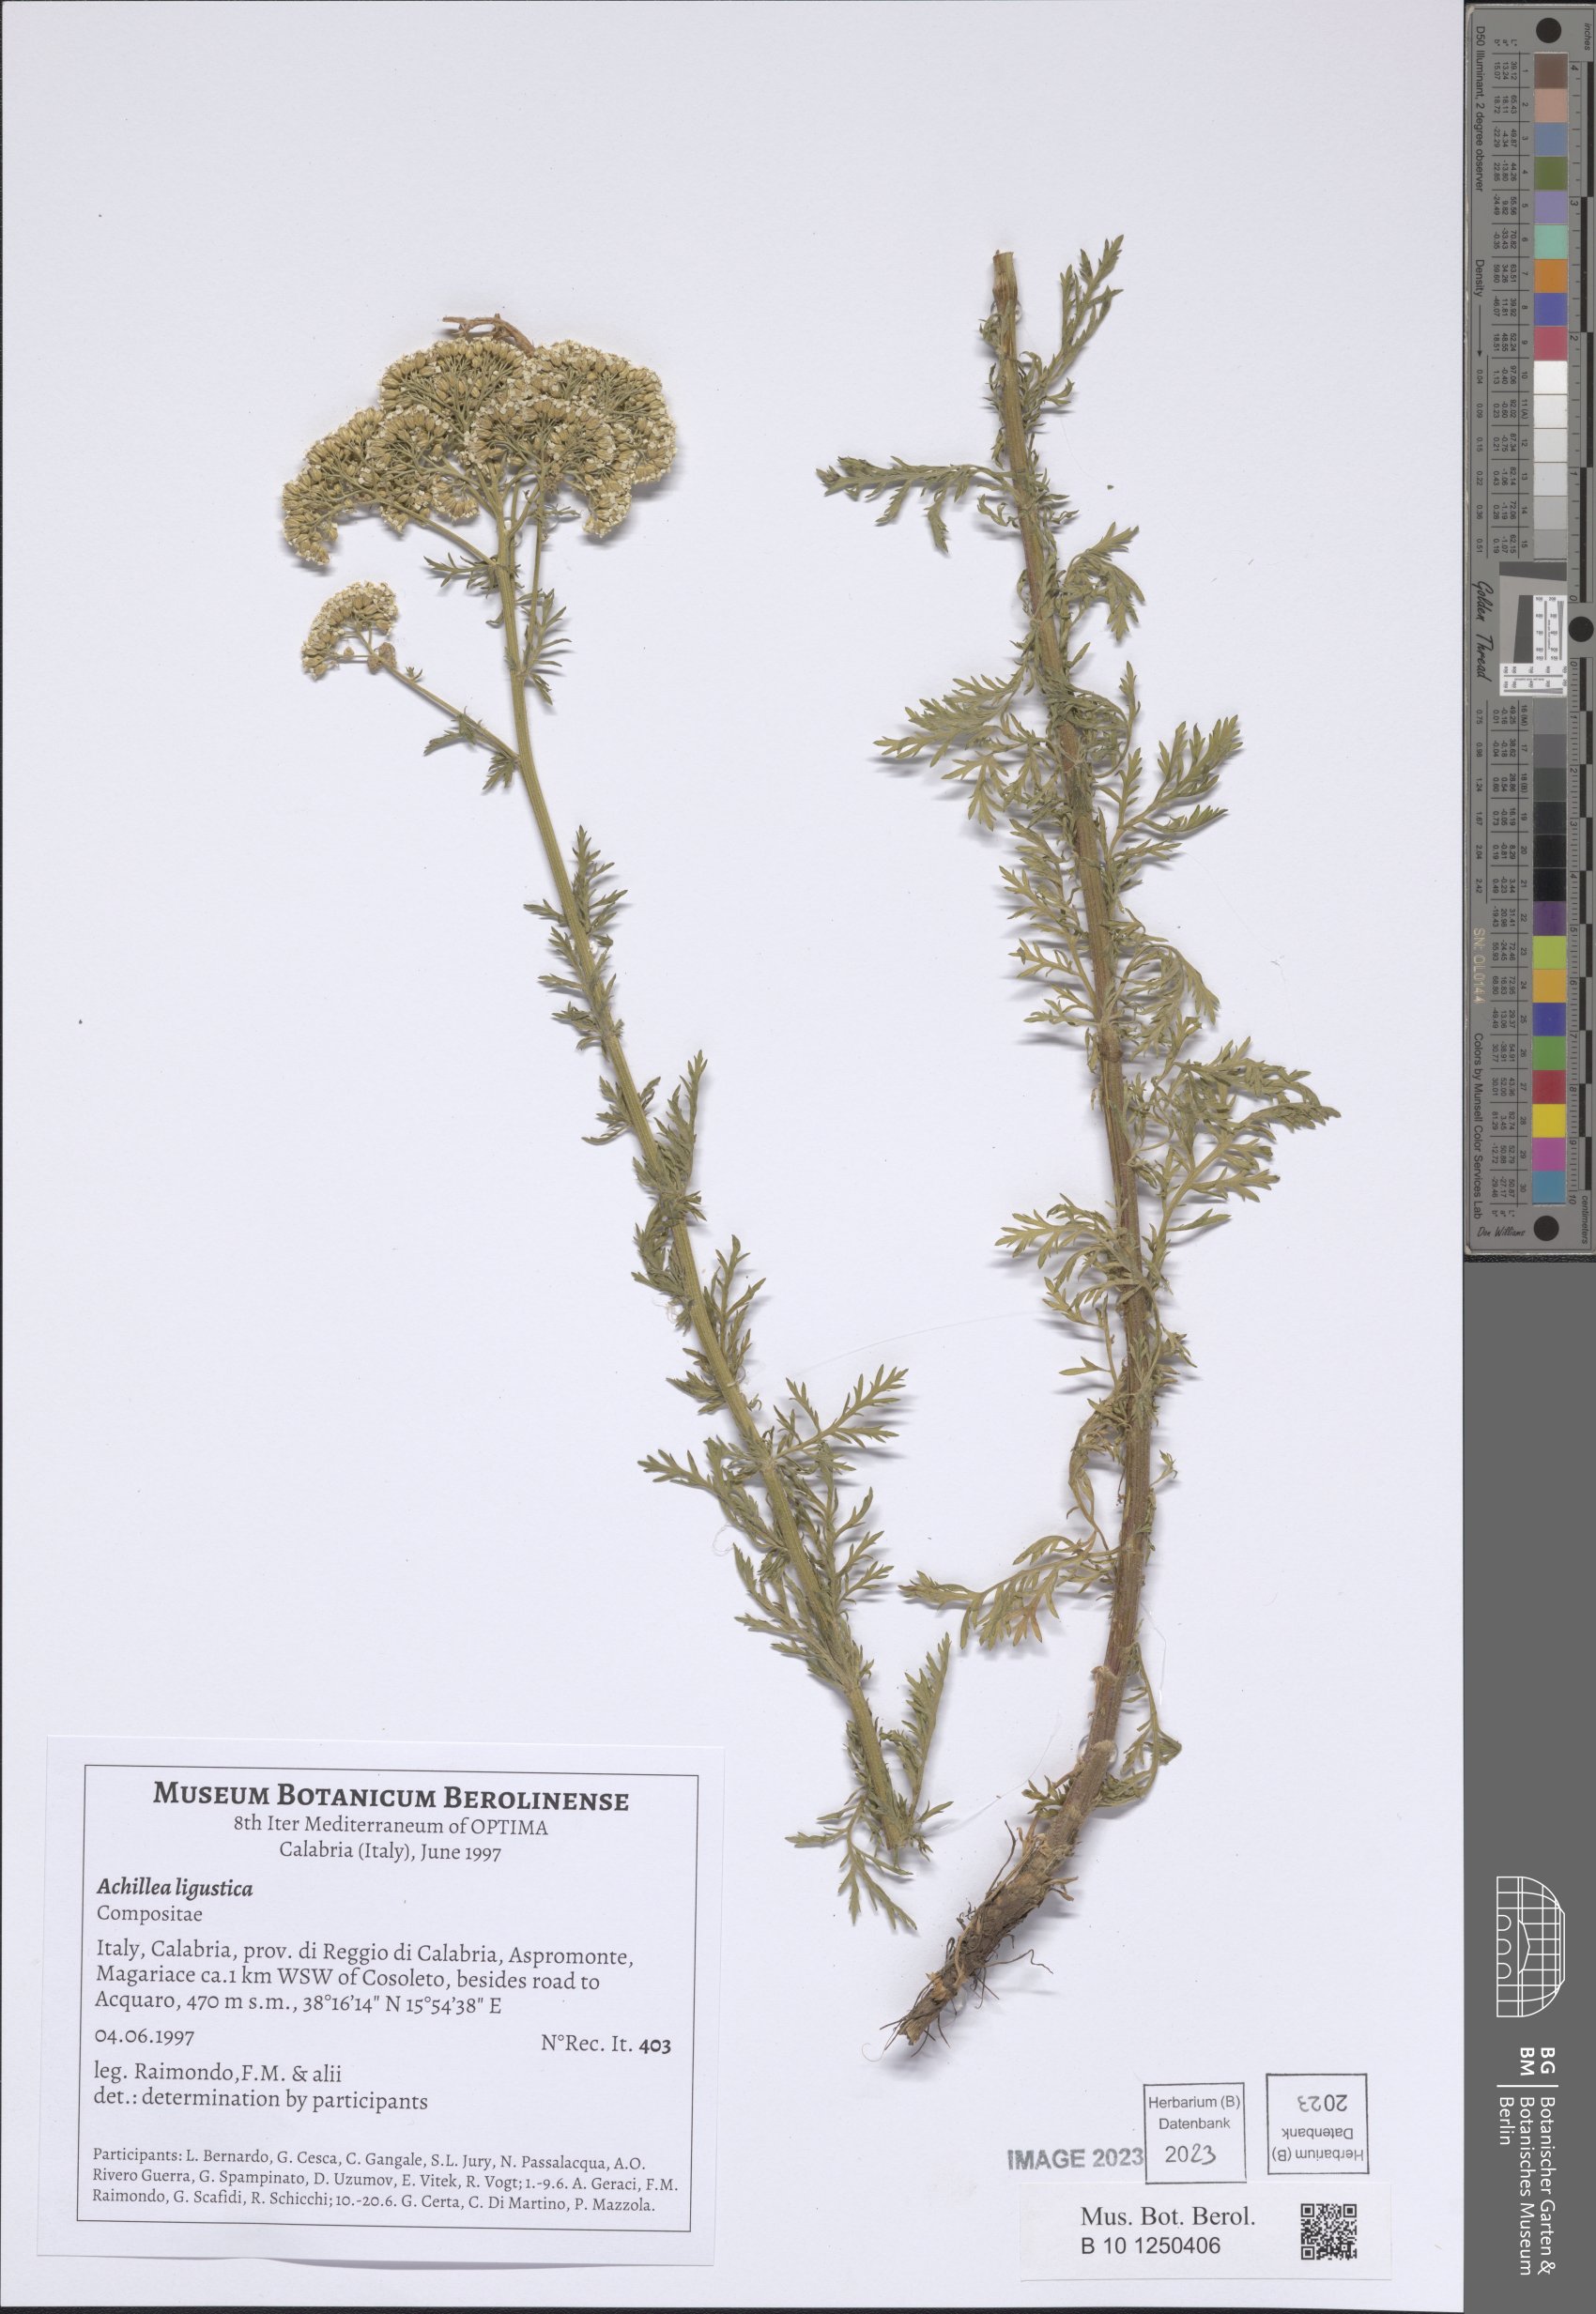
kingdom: Plantae
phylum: Tracheophyta
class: Magnoliopsida
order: Asterales
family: Asteraceae
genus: Achillea
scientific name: Achillea ligustica
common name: Southern yarrow
